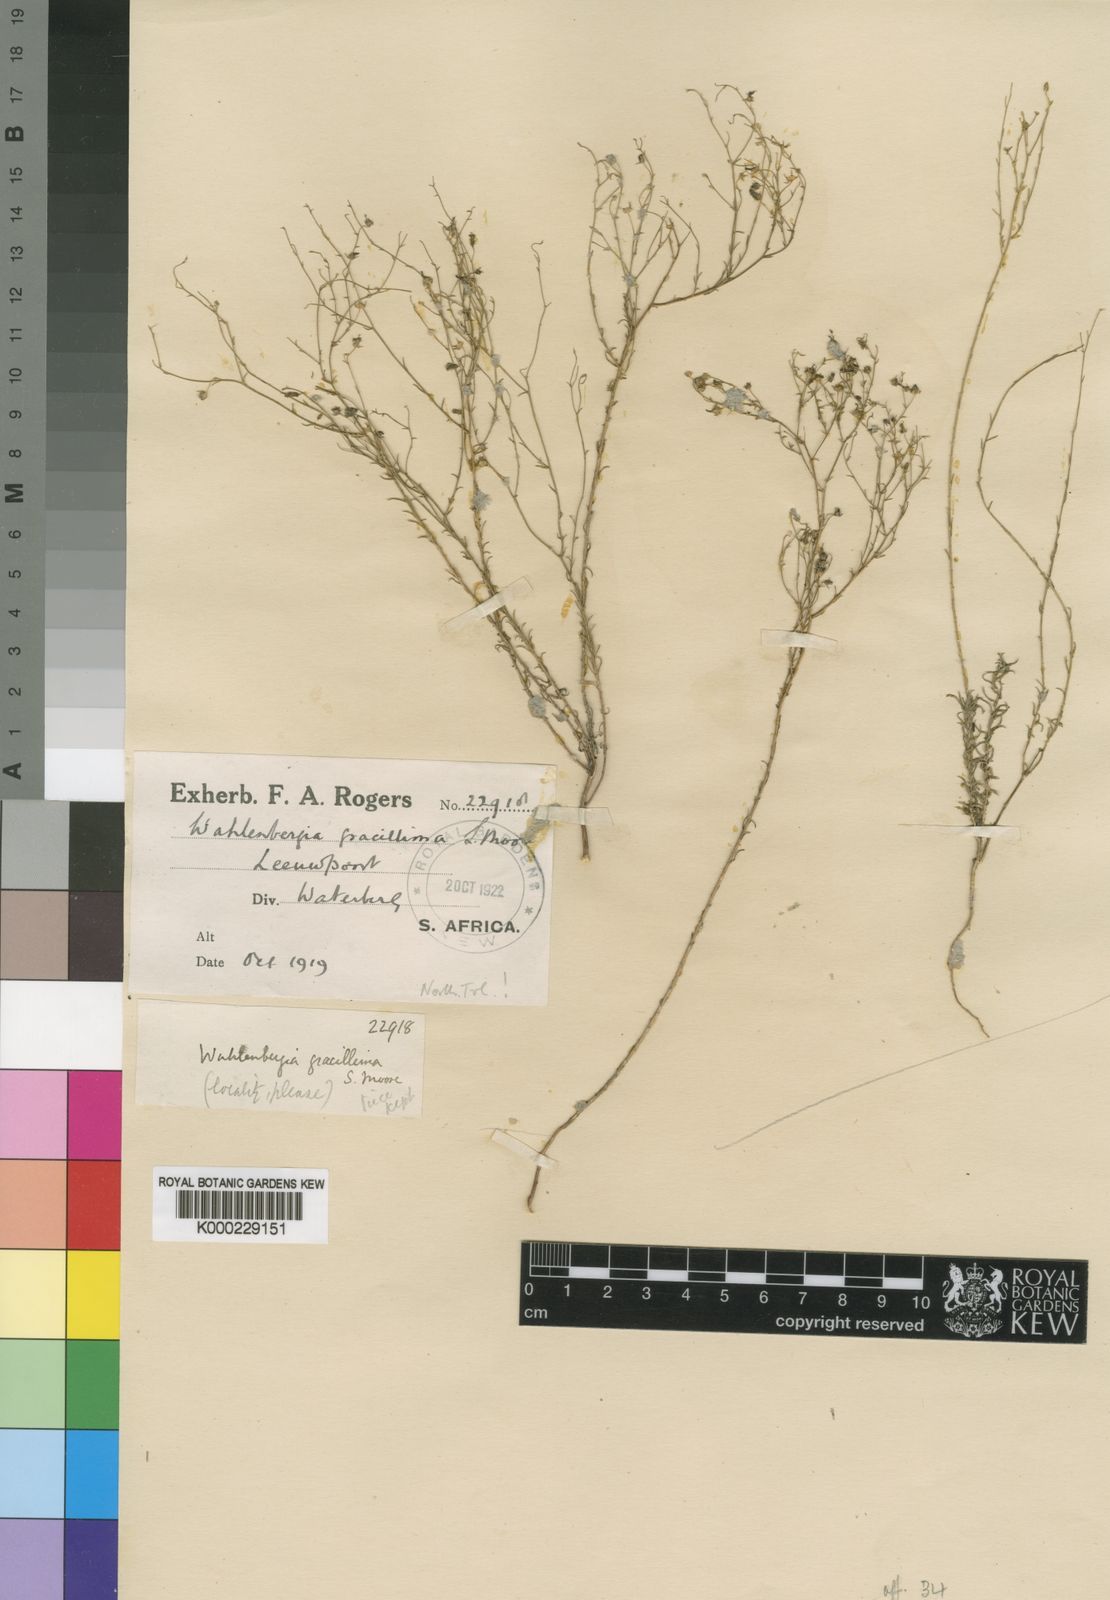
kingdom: Plantae
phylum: Tracheophyta
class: Magnoliopsida
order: Asterales
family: Campanulaceae
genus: Wahlenbergia
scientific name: Wahlenbergia banksiana
